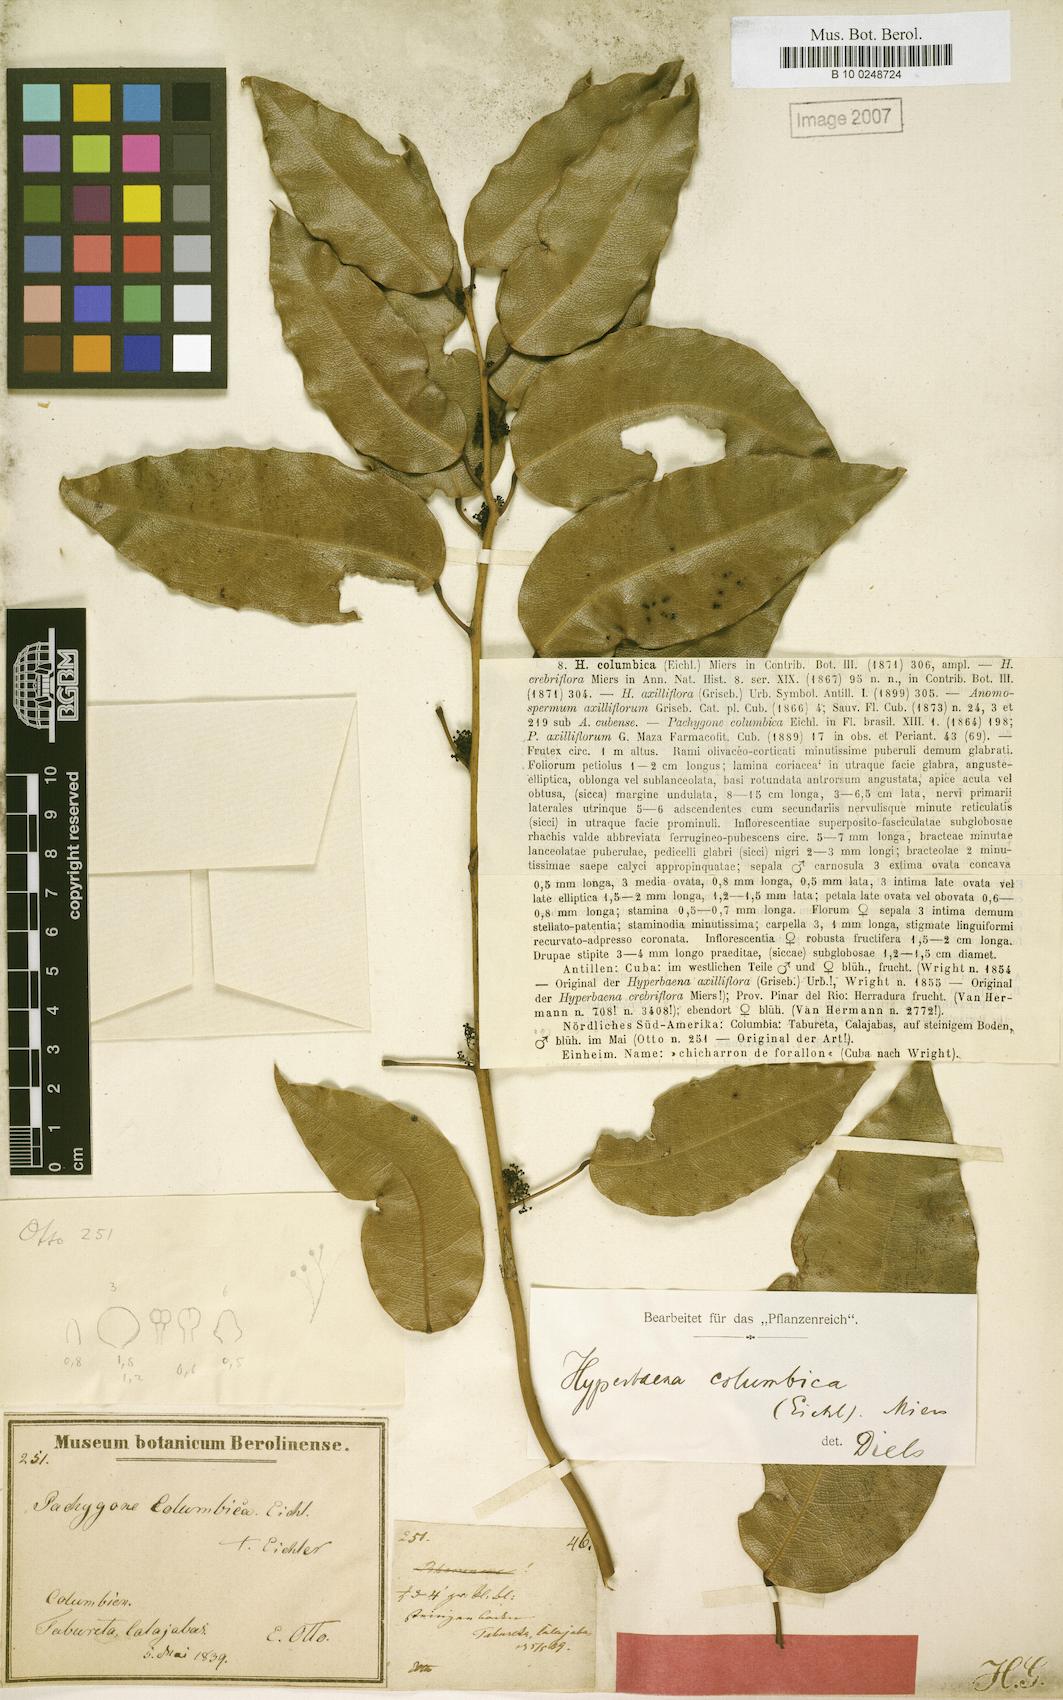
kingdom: Plantae
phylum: Tracheophyta
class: Magnoliopsida
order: Ranunculales
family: Menispermaceae
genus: Hyperbaena
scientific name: Hyperbaena columbica
